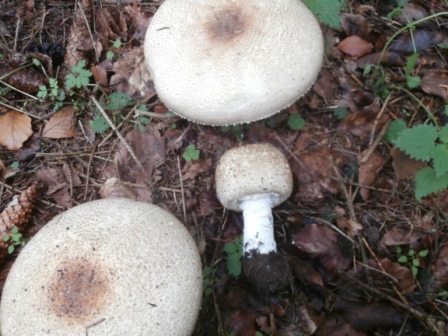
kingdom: Fungi
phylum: Basidiomycota
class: Agaricomycetes
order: Agaricales
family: Agaricaceae
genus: Agaricus
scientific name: Agaricus augustus
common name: prægtig champignon
